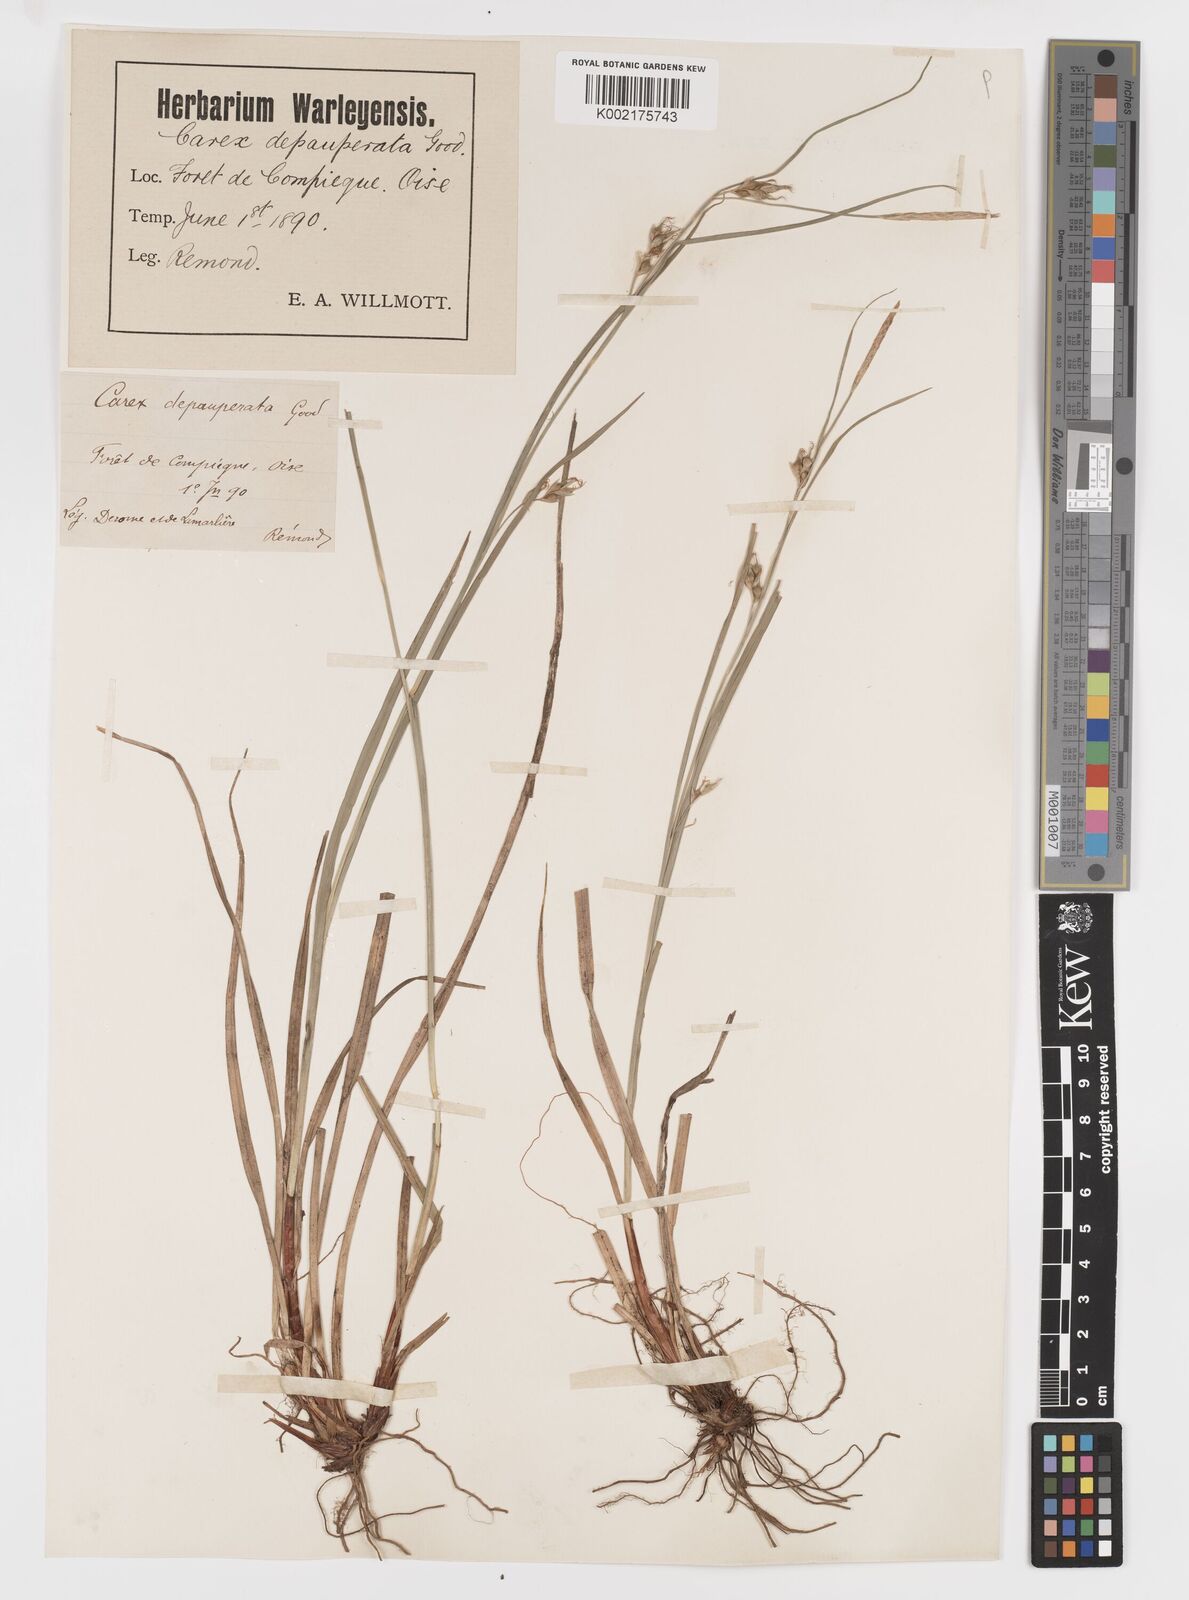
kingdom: Plantae
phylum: Tracheophyta
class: Liliopsida
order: Poales
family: Cyperaceae
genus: Carex
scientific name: Carex
